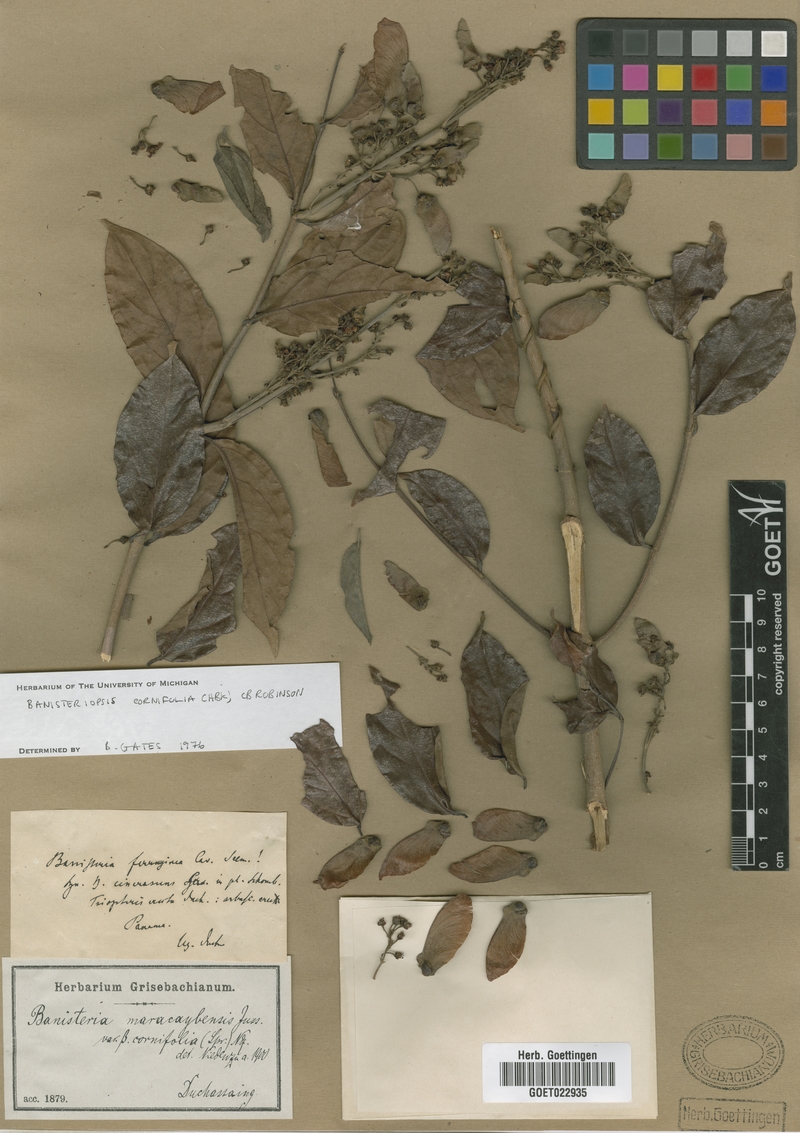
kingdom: Plantae
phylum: Tracheophyta
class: Magnoliopsida
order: Malpighiales
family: Malpighiaceae
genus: Bronwenia
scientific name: Bronwenia cornifolia
